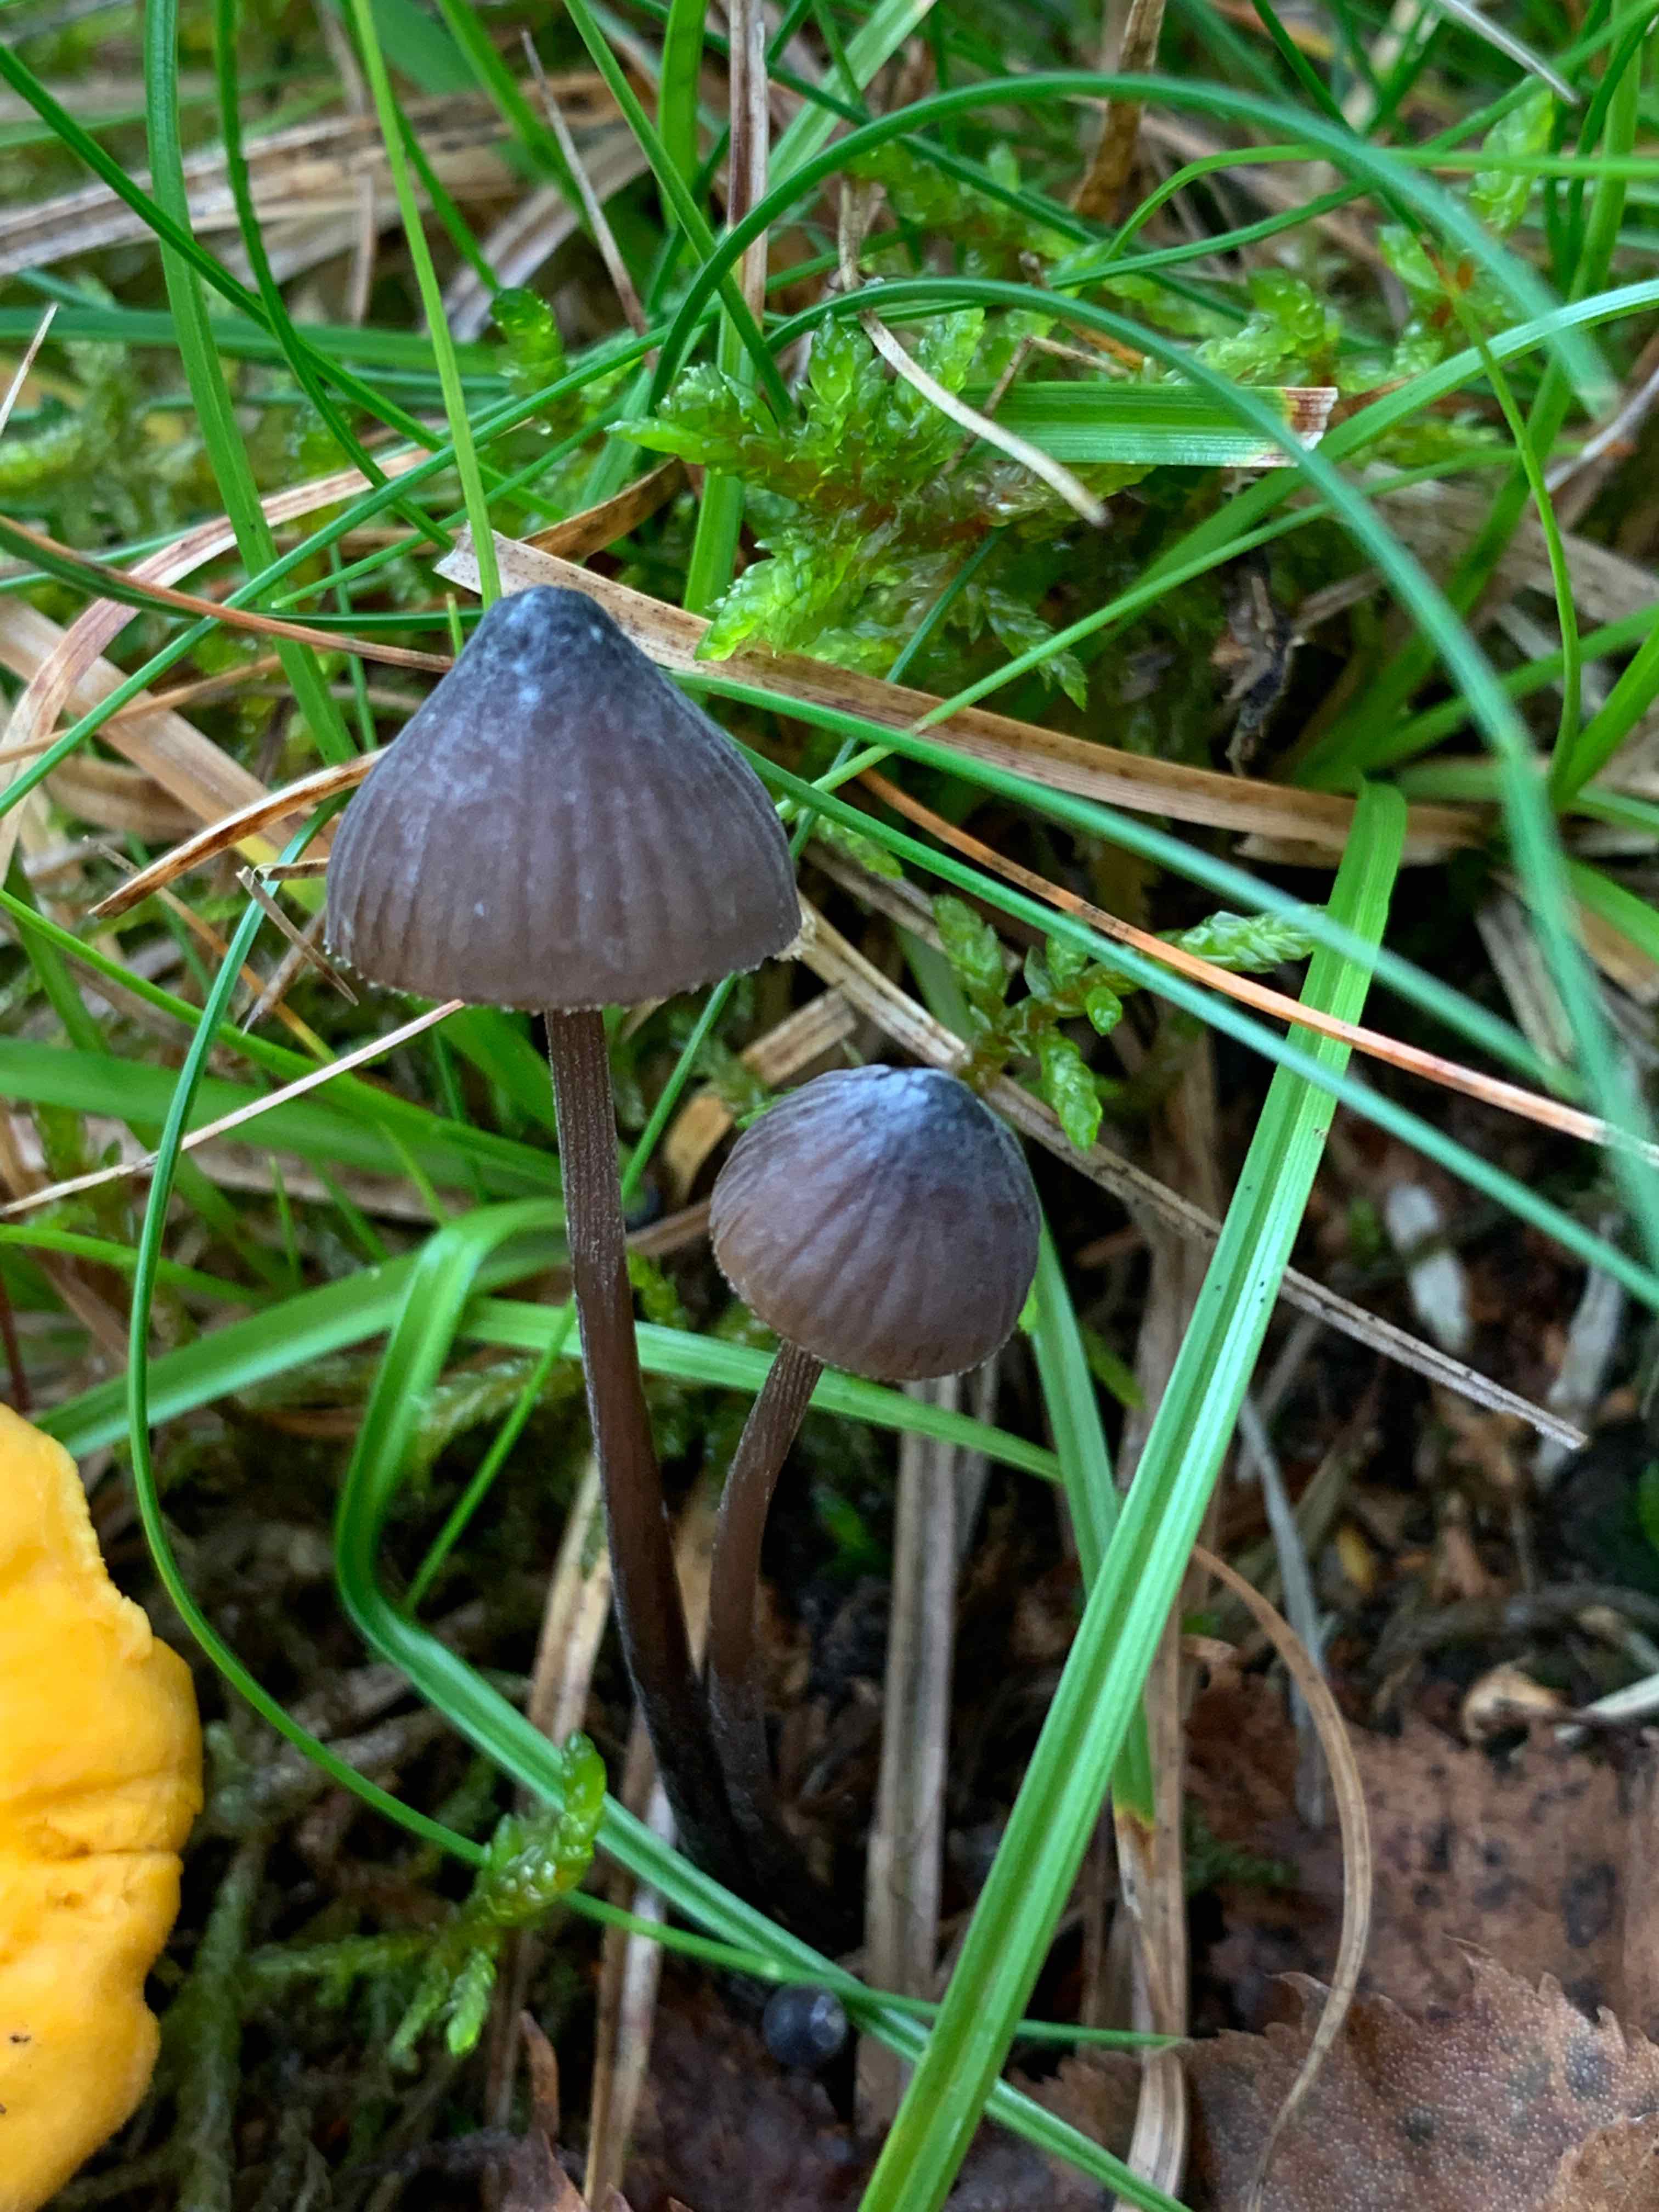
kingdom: Fungi
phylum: Basidiomycota
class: Agaricomycetes
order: Agaricales
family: Mycenaceae
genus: Mycena
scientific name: Mycena galopus
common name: hvidmælket huesvamp
